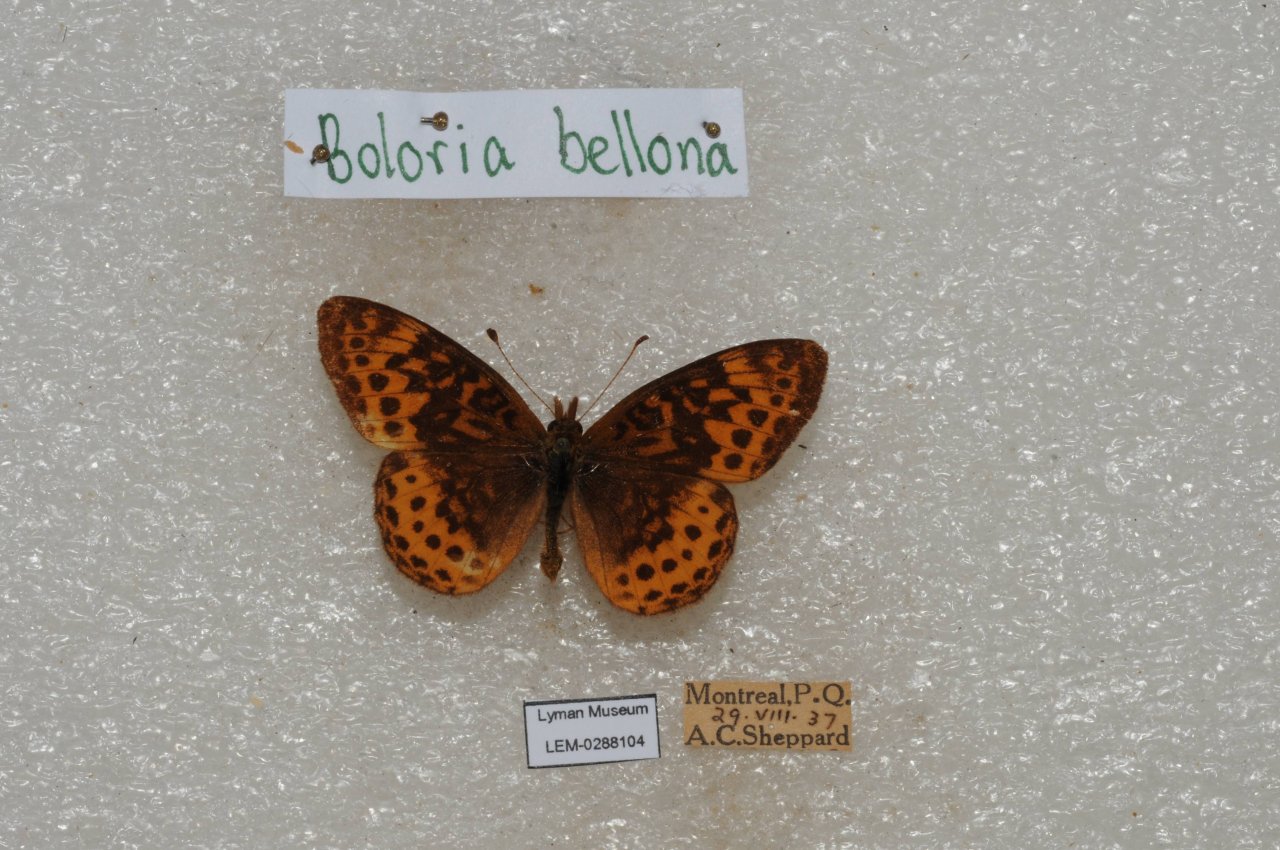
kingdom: Animalia
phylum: Arthropoda
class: Insecta
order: Lepidoptera
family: Nymphalidae
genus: Clossiana
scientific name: Clossiana toddi
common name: Meadow Fritillary
